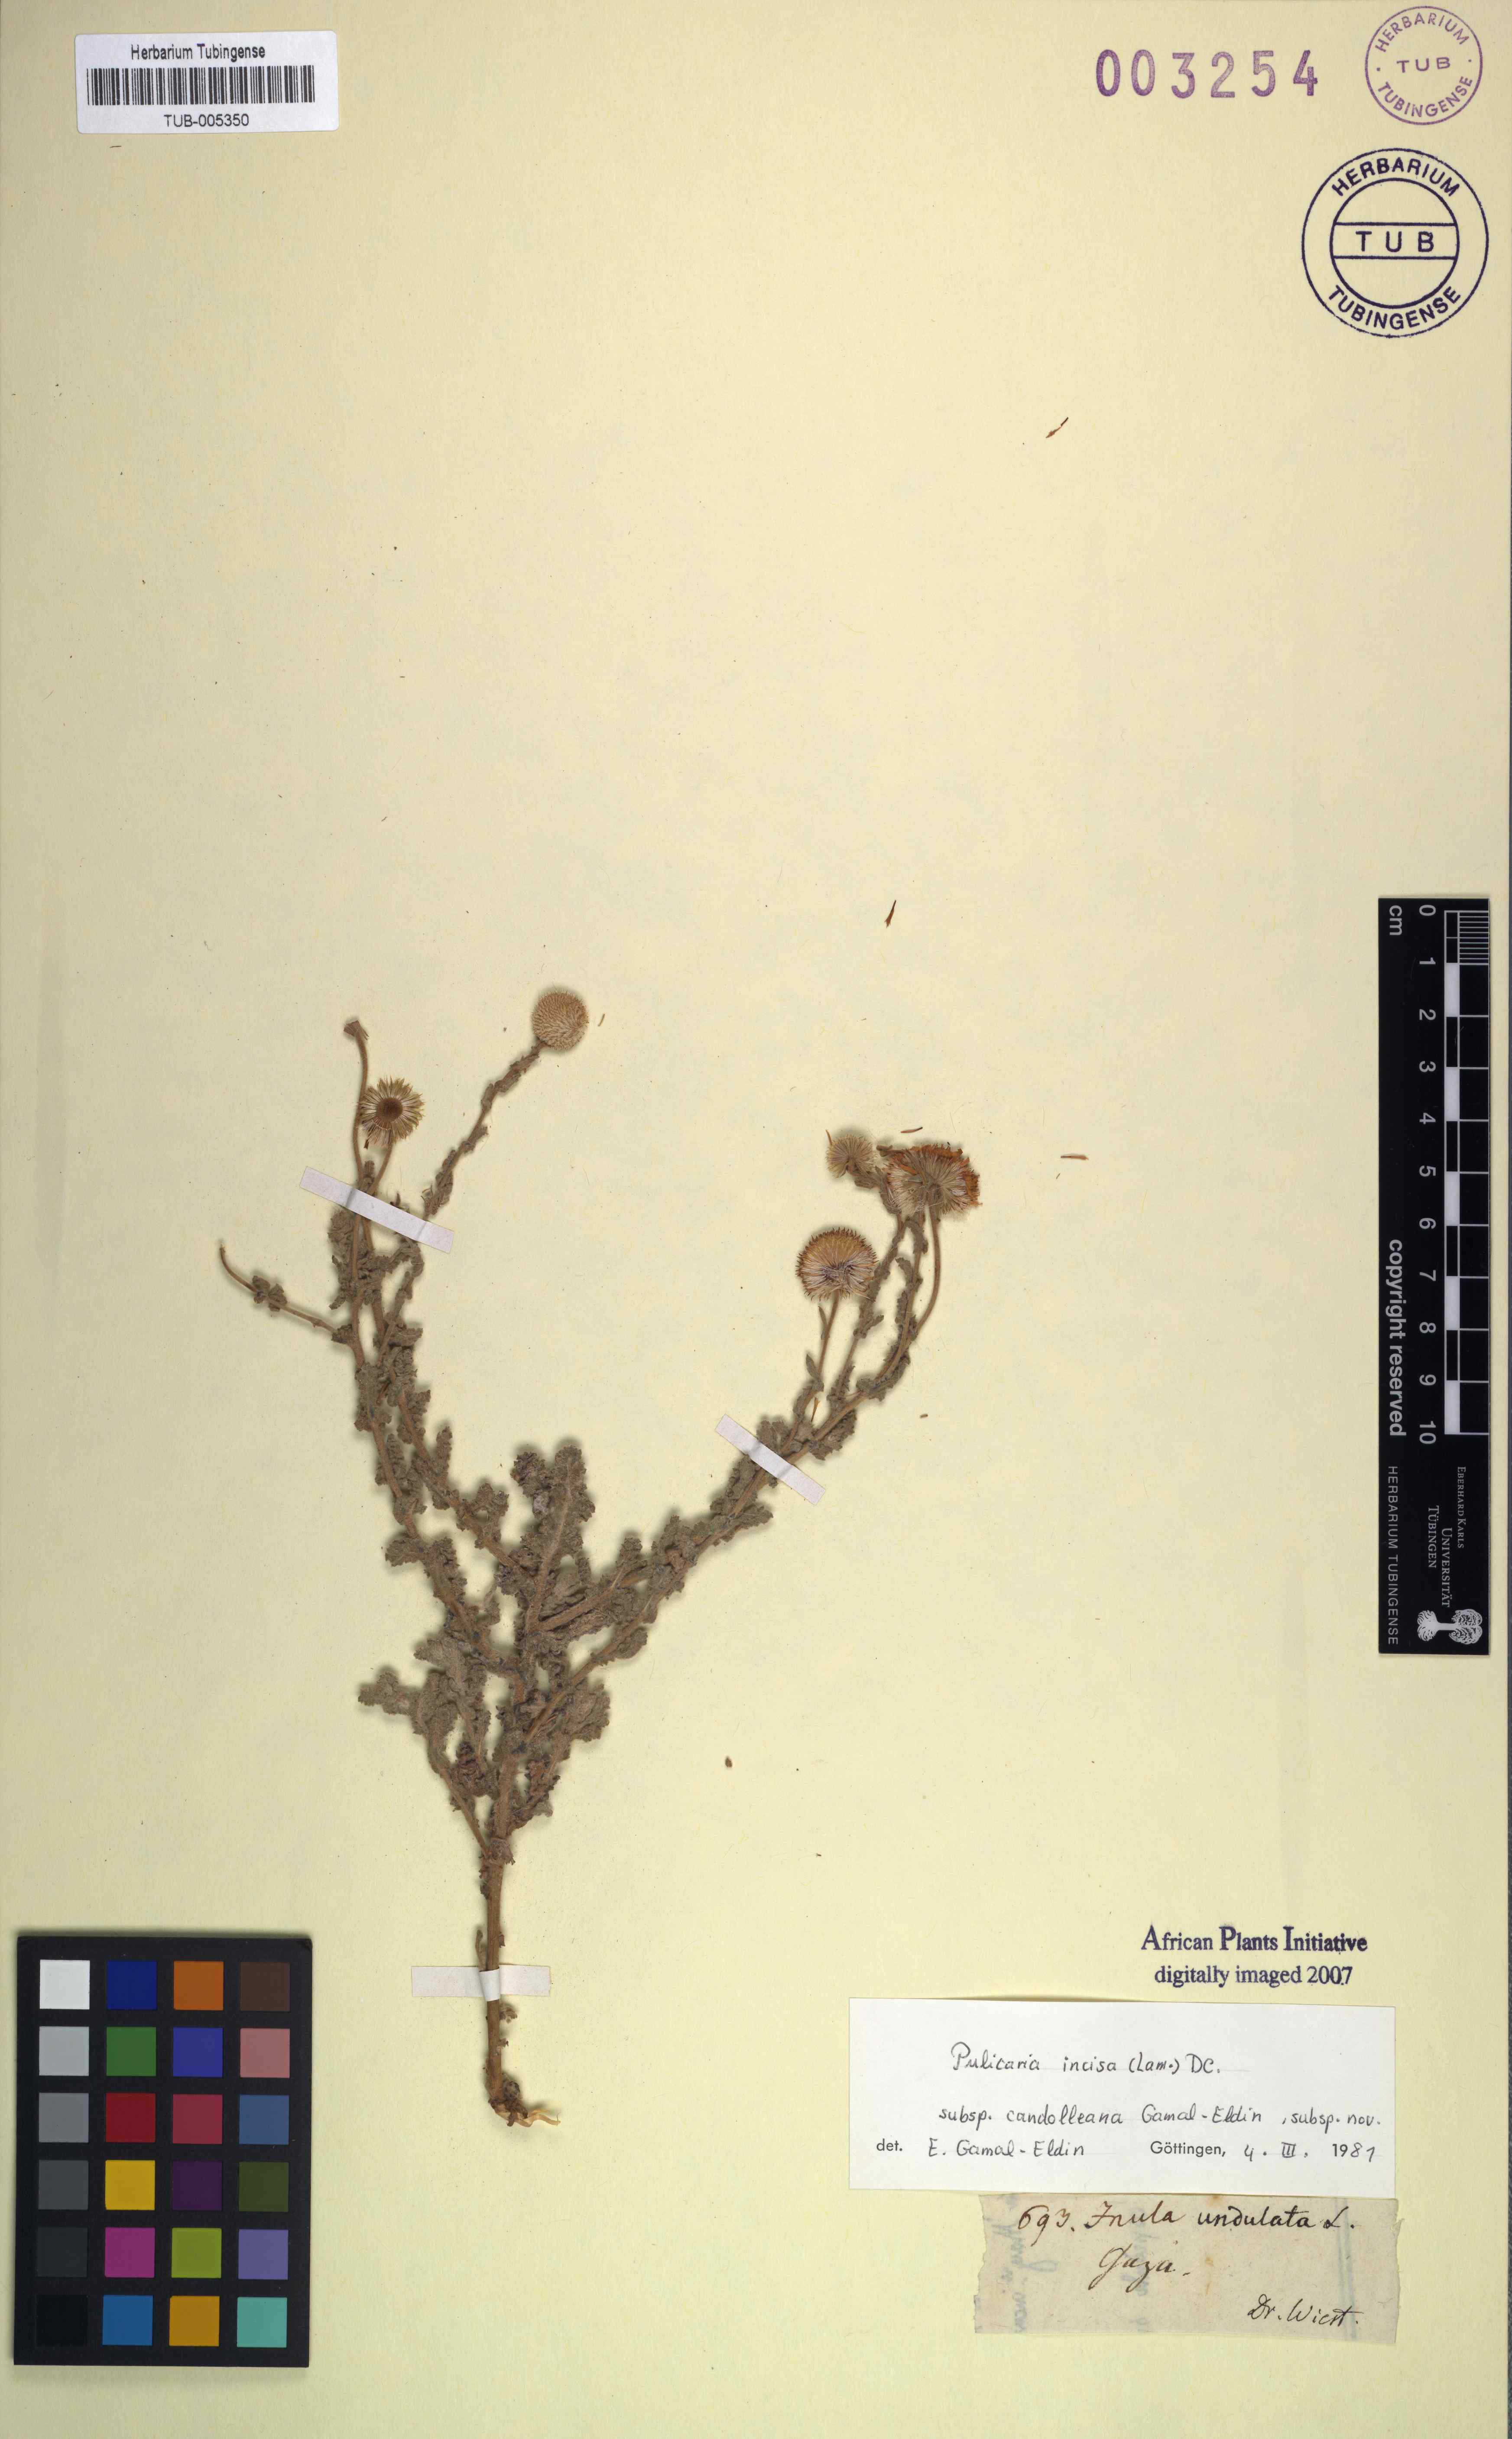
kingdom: Plantae
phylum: Tracheophyta
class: Magnoliopsida
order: Asterales
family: Asteraceae
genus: Pulicaria
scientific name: Pulicaria incisa
